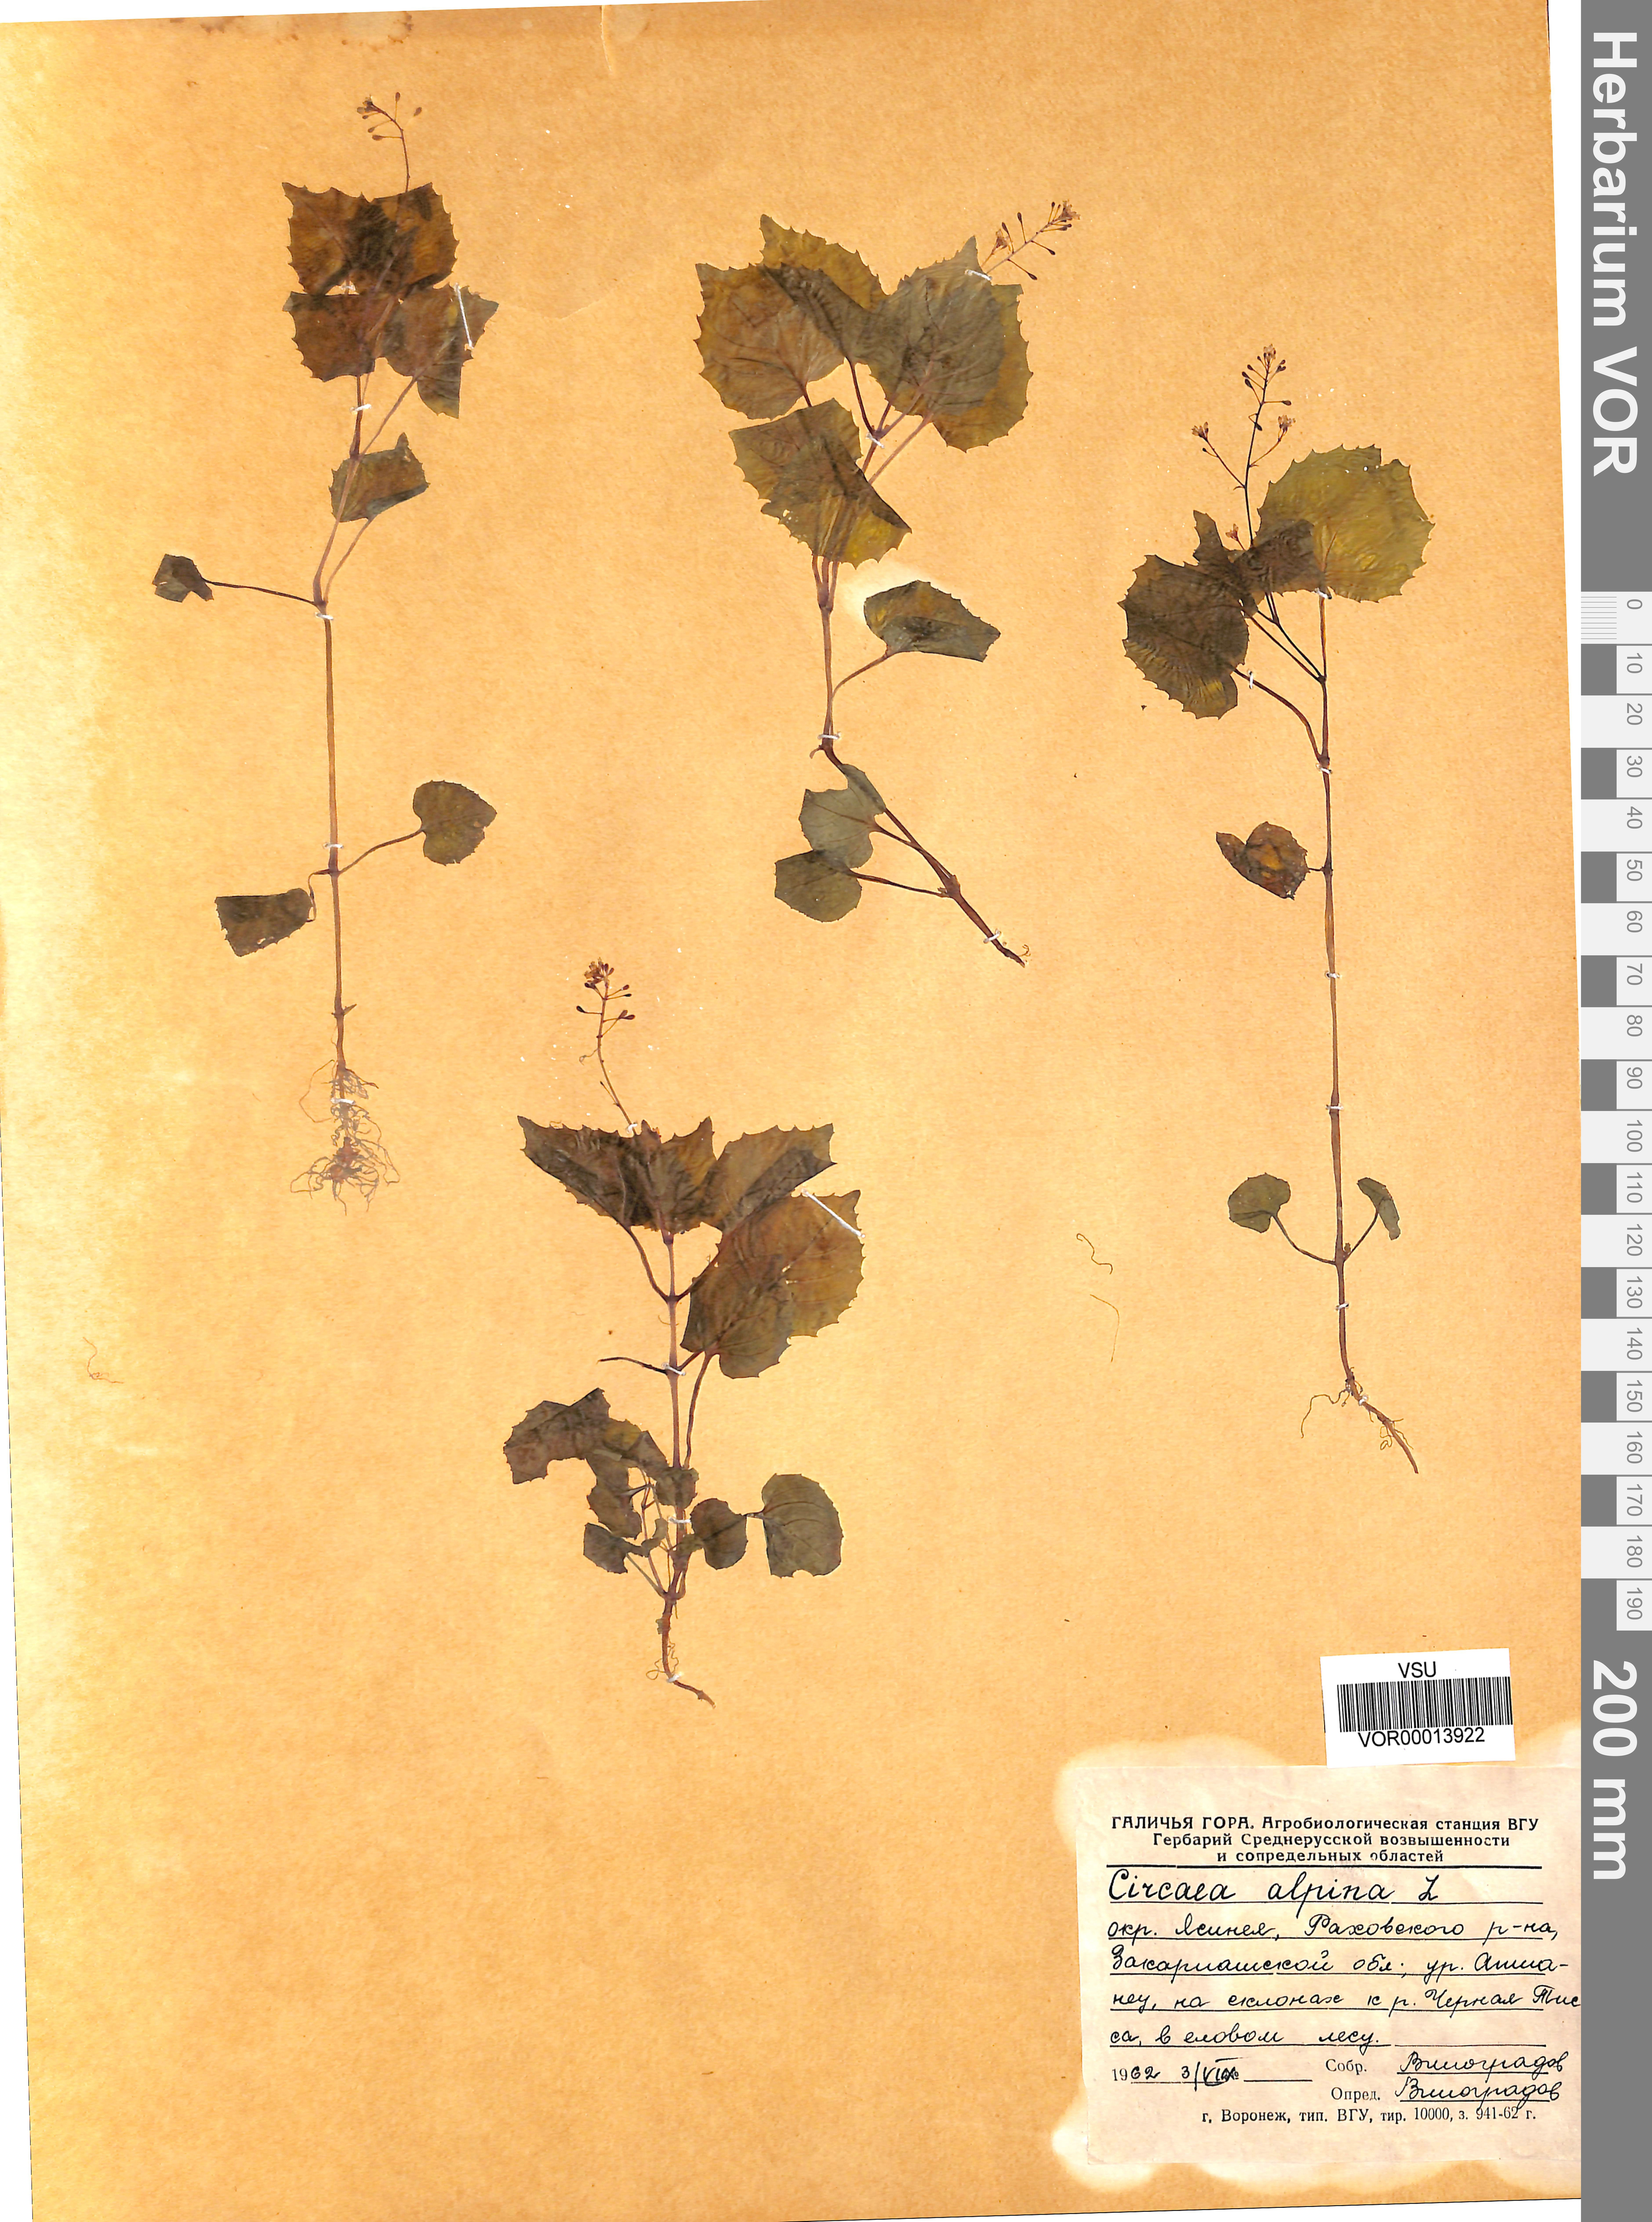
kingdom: Plantae
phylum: Tracheophyta
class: Magnoliopsida
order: Myrtales
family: Onagraceae
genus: Circaea
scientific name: Circaea alpina
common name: Alpine enchanter's-nightshade
